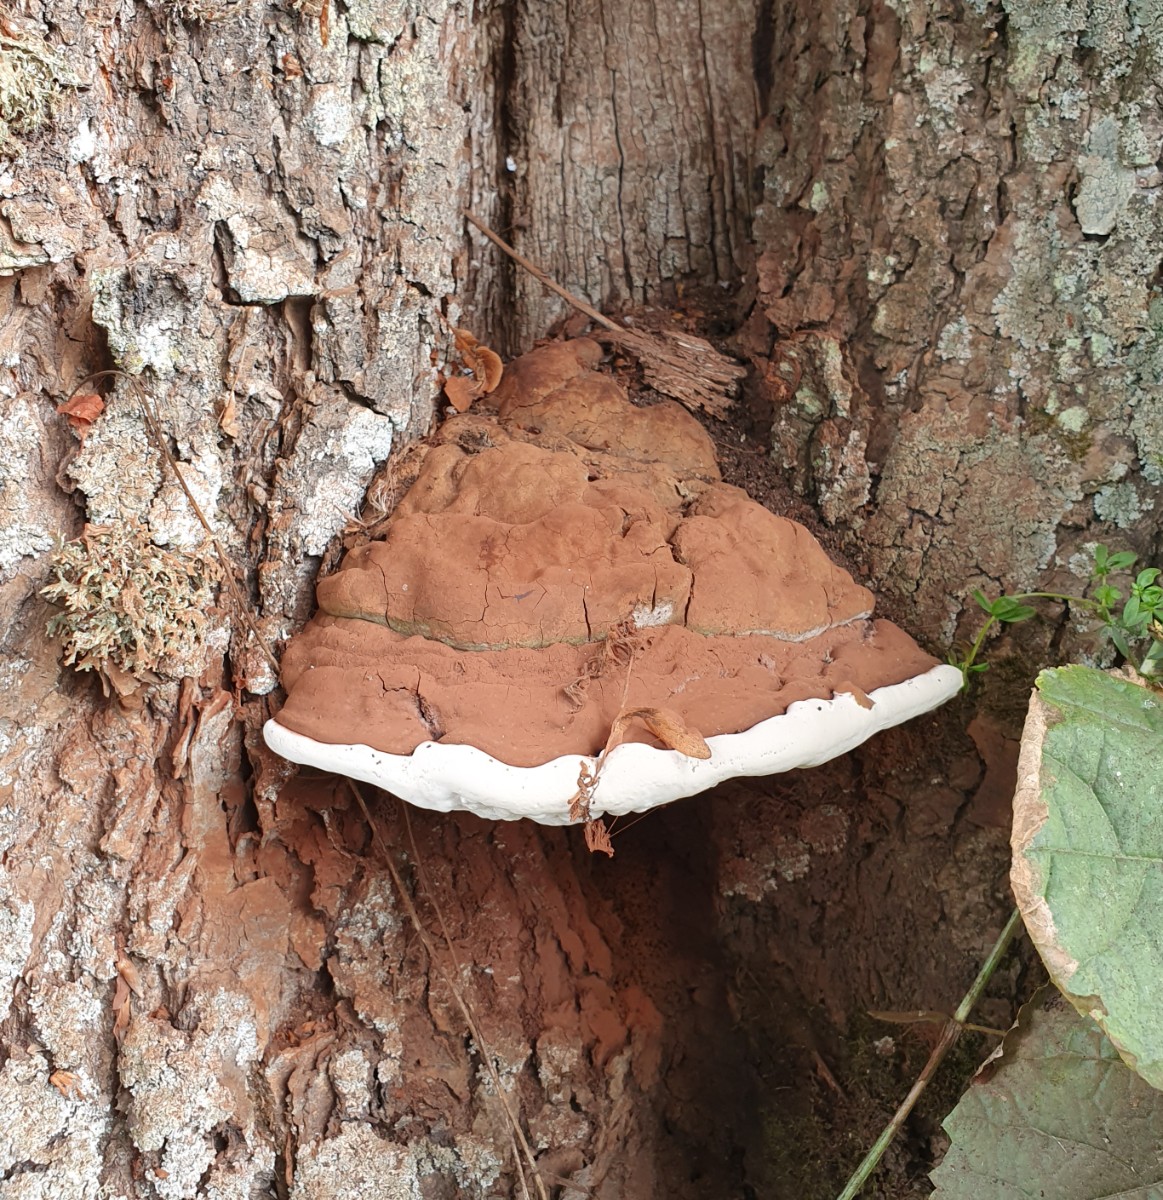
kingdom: Fungi
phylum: Basidiomycota
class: Agaricomycetes
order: Polyporales
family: Polyporaceae
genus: Ganoderma
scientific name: Ganoderma adspersum
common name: grov lakporesvamp
